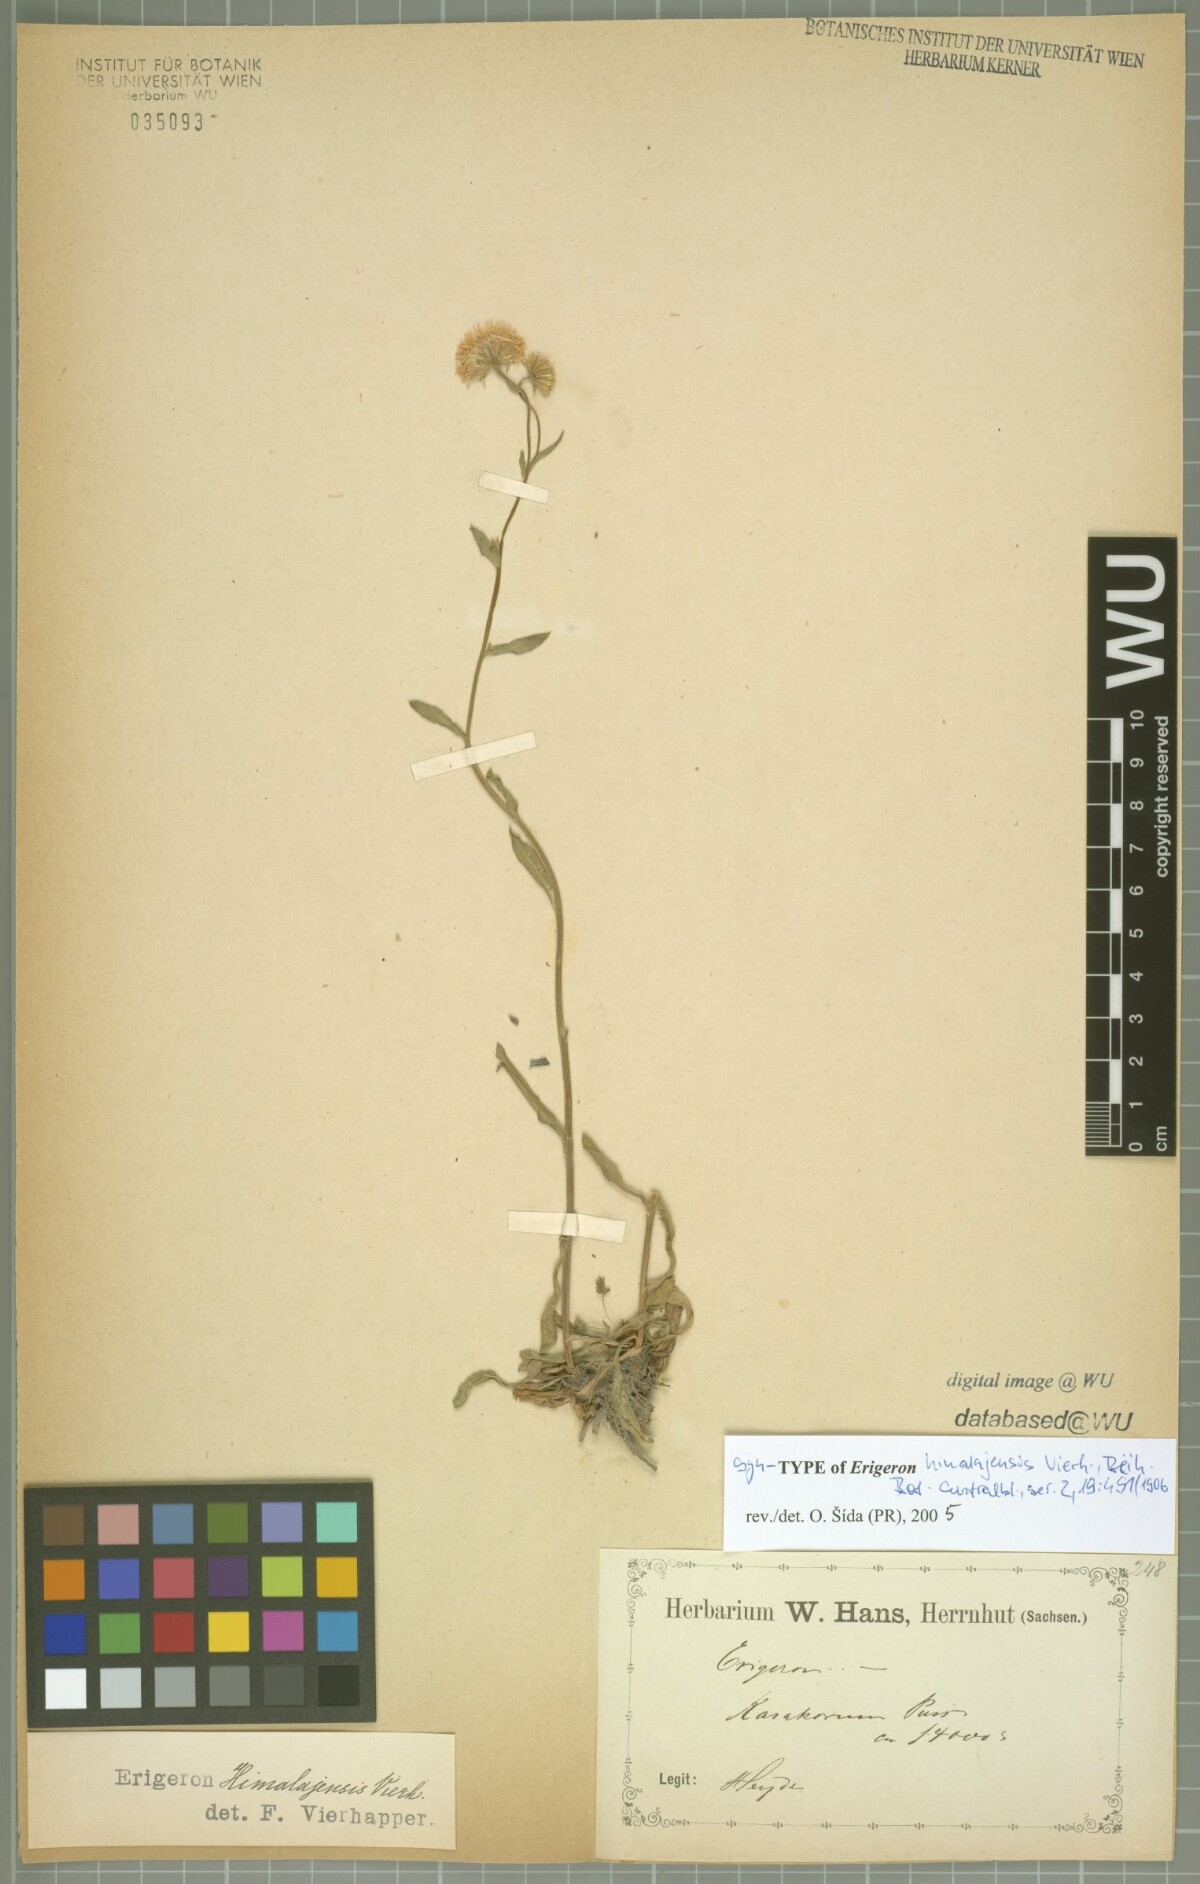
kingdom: Plantae
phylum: Tracheophyta
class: Magnoliopsida
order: Asterales
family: Asteraceae
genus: Erigeron
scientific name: Erigeron himalayensis
